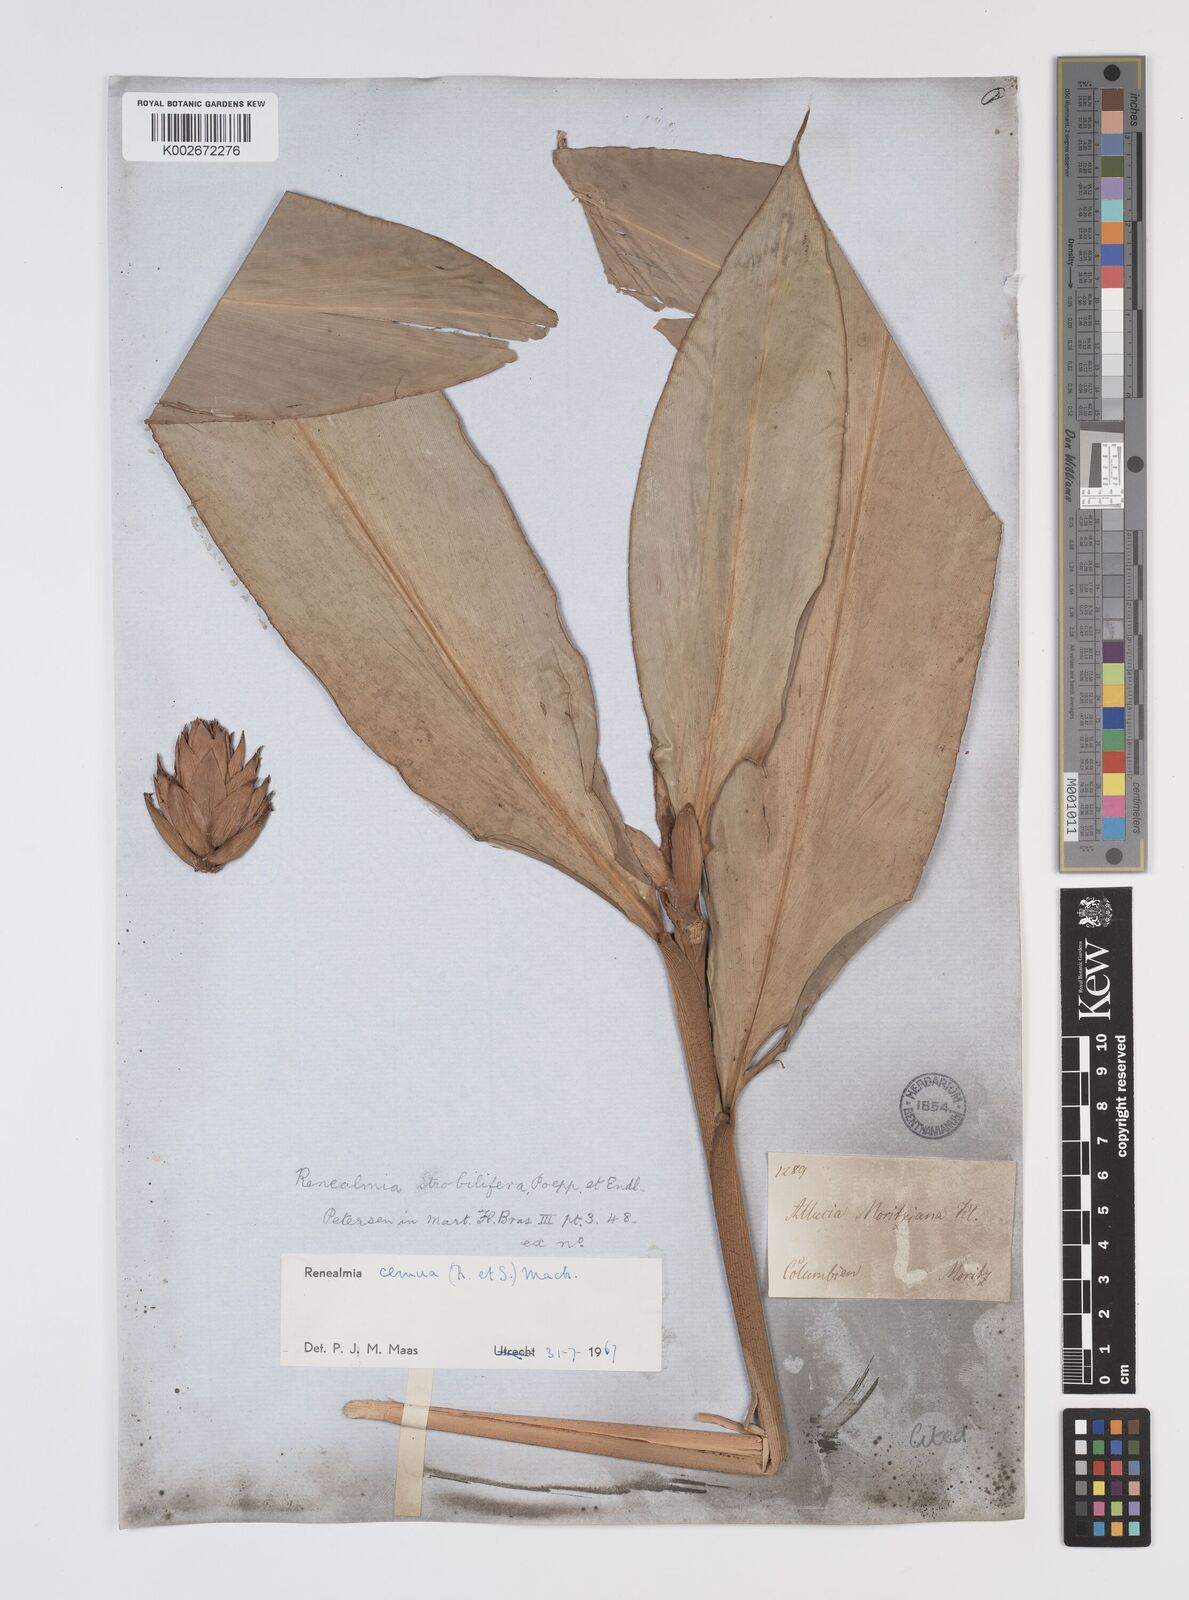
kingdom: Plantae
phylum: Tracheophyta
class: Liliopsida
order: Zingiberales
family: Zingiberaceae
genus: Renealmia
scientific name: Renealmia cernua
